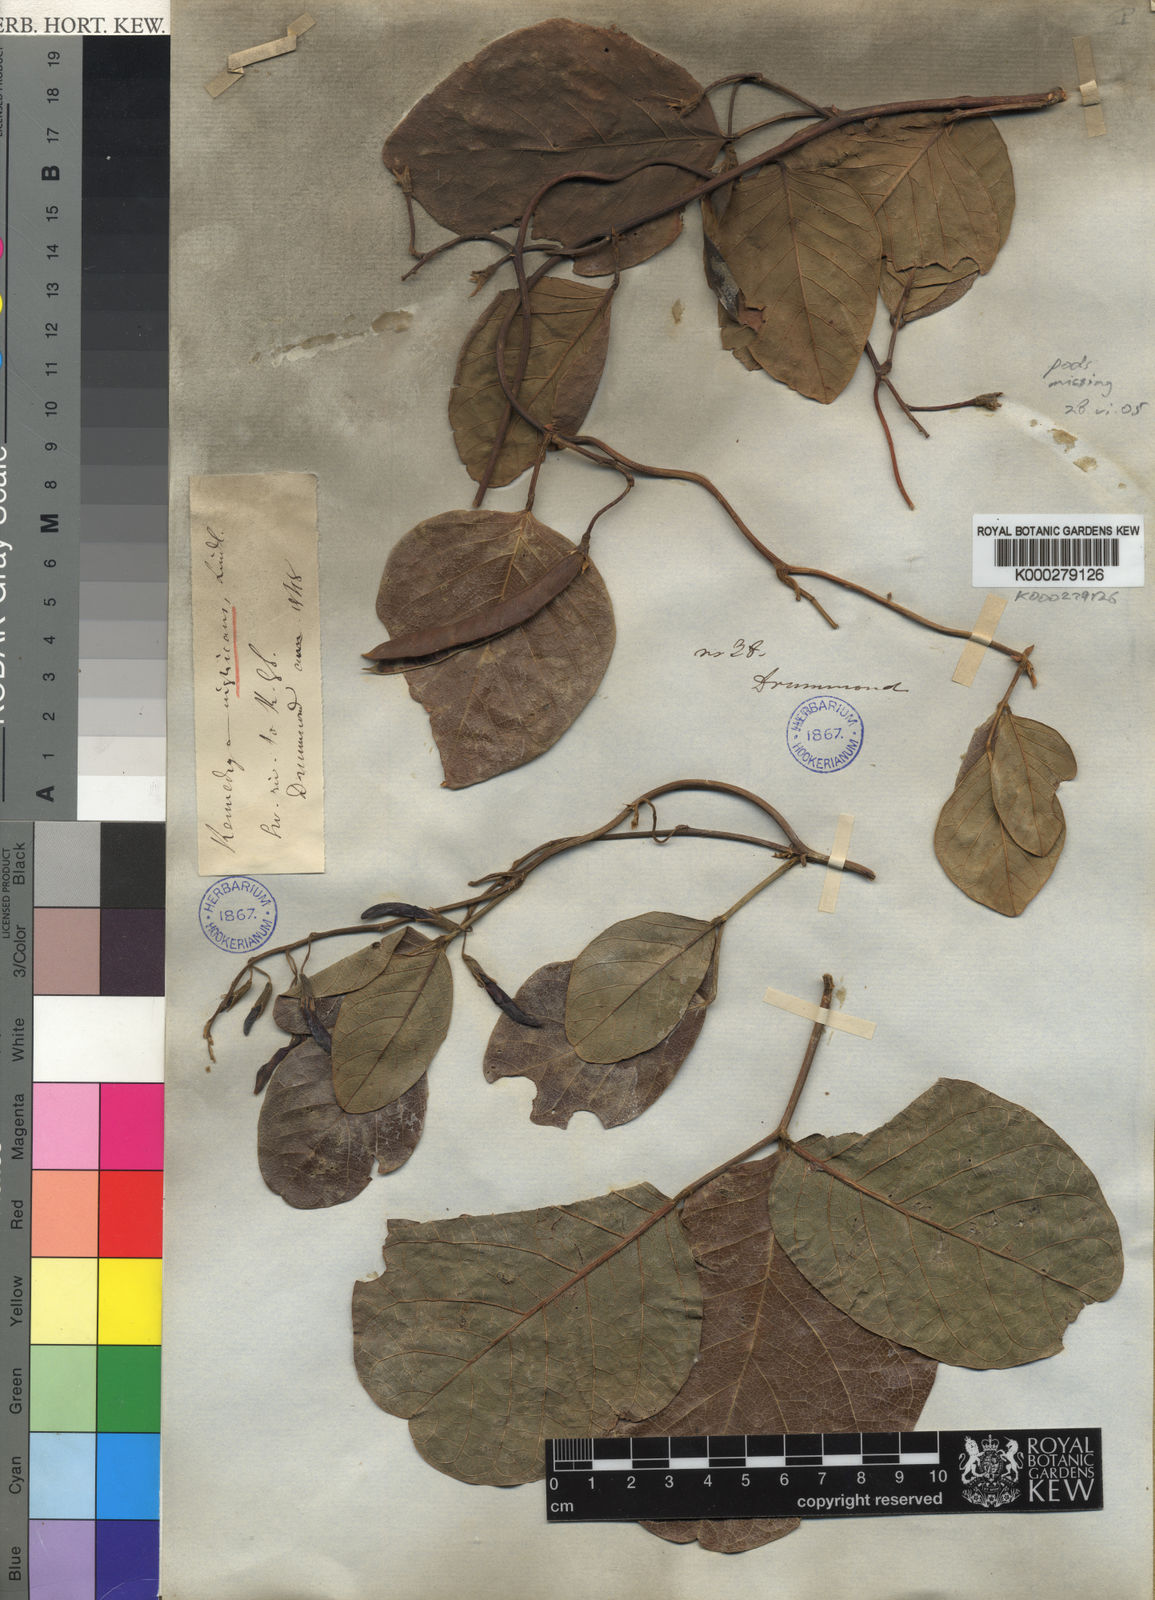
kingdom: Plantae
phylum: Tracheophyta
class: Magnoliopsida
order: Fabales
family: Fabaceae
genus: Kennedia
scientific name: Kennedia nigricans
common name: Black-bean
